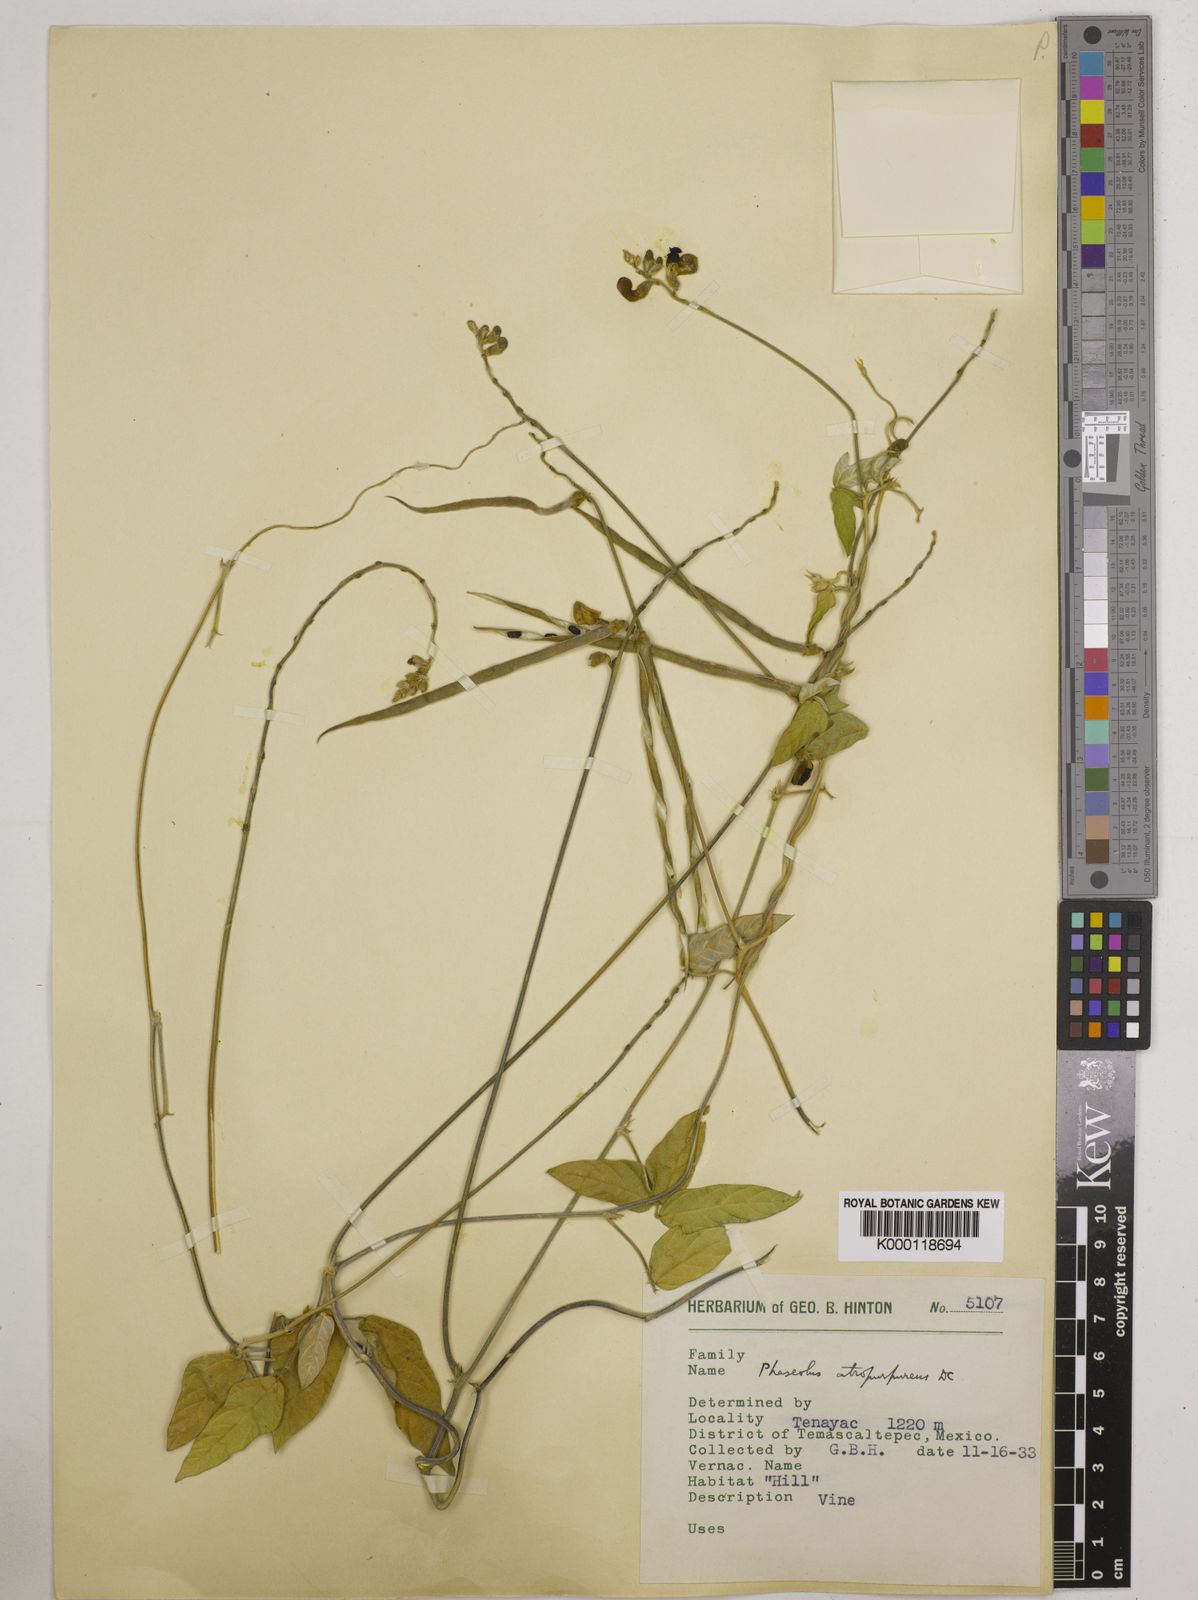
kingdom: Plantae
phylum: Tracheophyta
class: Magnoliopsida
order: Fabales
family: Fabaceae
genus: Macroptilium
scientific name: Macroptilium atropurpureum
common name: Purple bushbean
